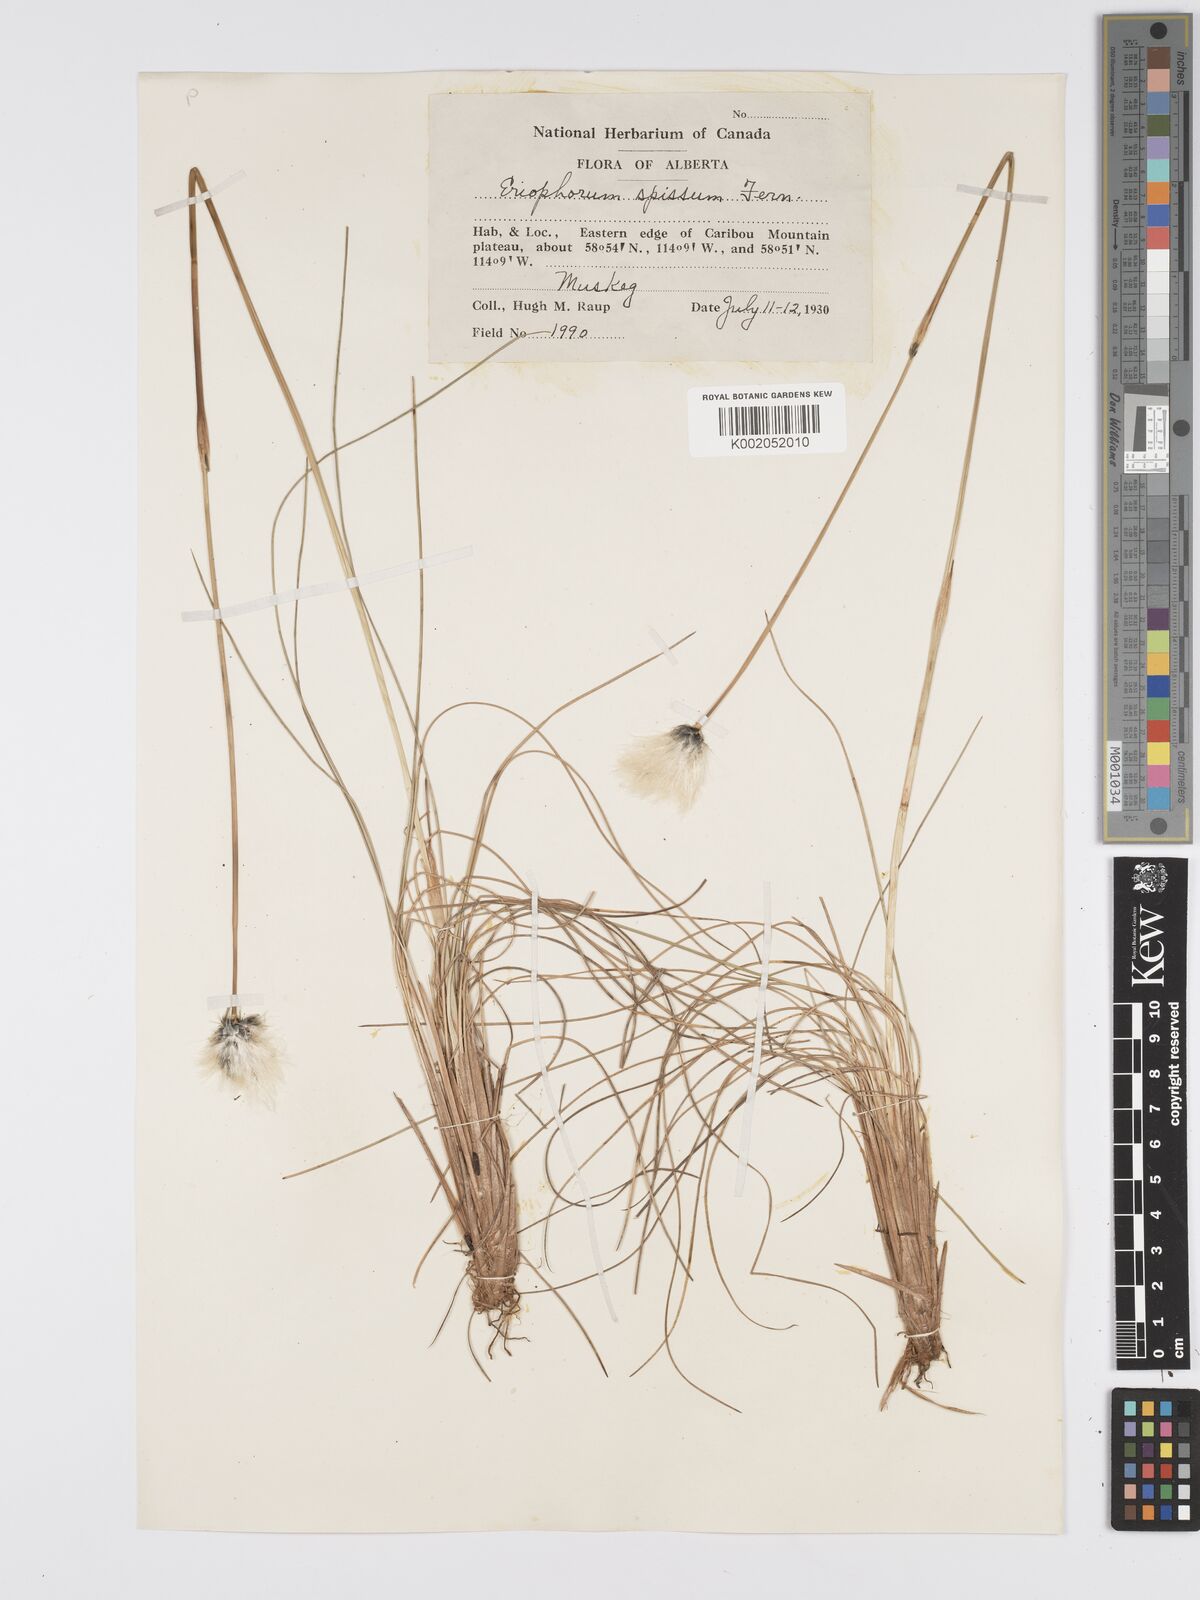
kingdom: Plantae
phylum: Tracheophyta
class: Liliopsida
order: Poales
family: Cyperaceae
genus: Eriophorum
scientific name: Eriophorum vaginatum
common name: Hare's-tail cottongrass
